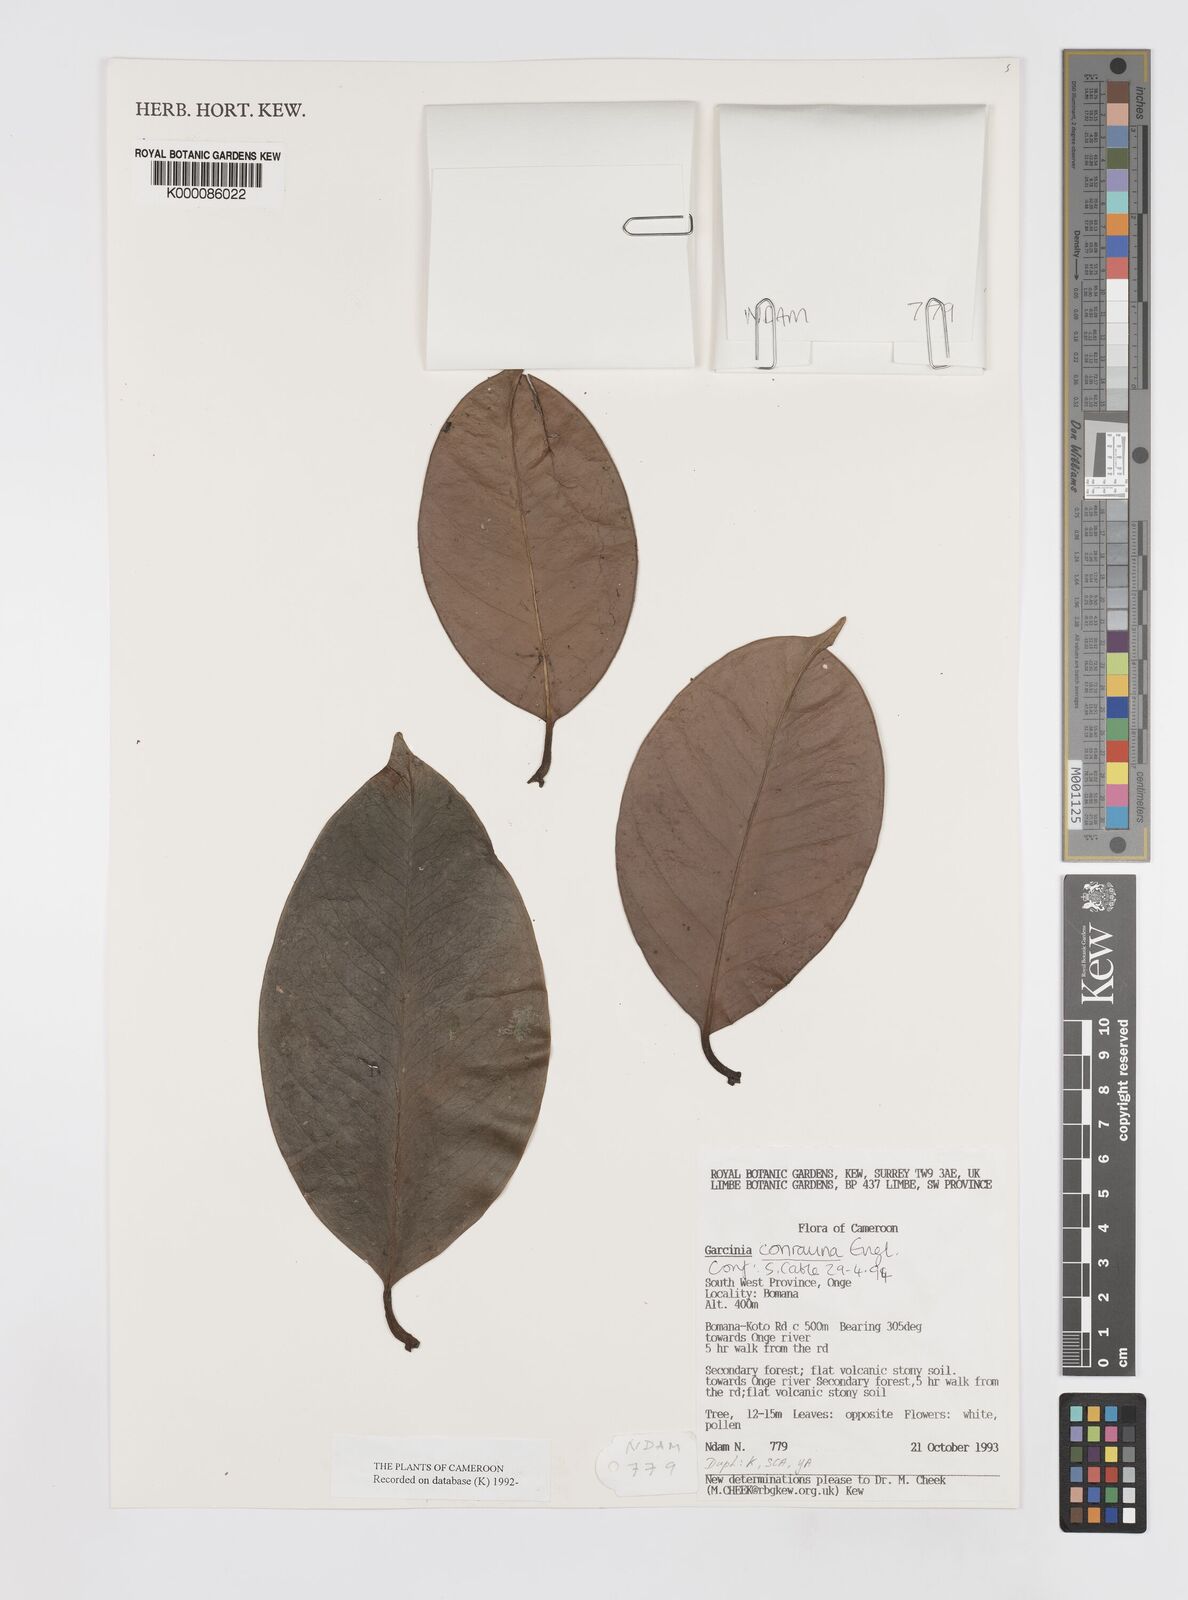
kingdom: Plantae
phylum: Tracheophyta
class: Magnoliopsida
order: Malpighiales
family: Clusiaceae
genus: Garcinia
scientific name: Garcinia conrauana
